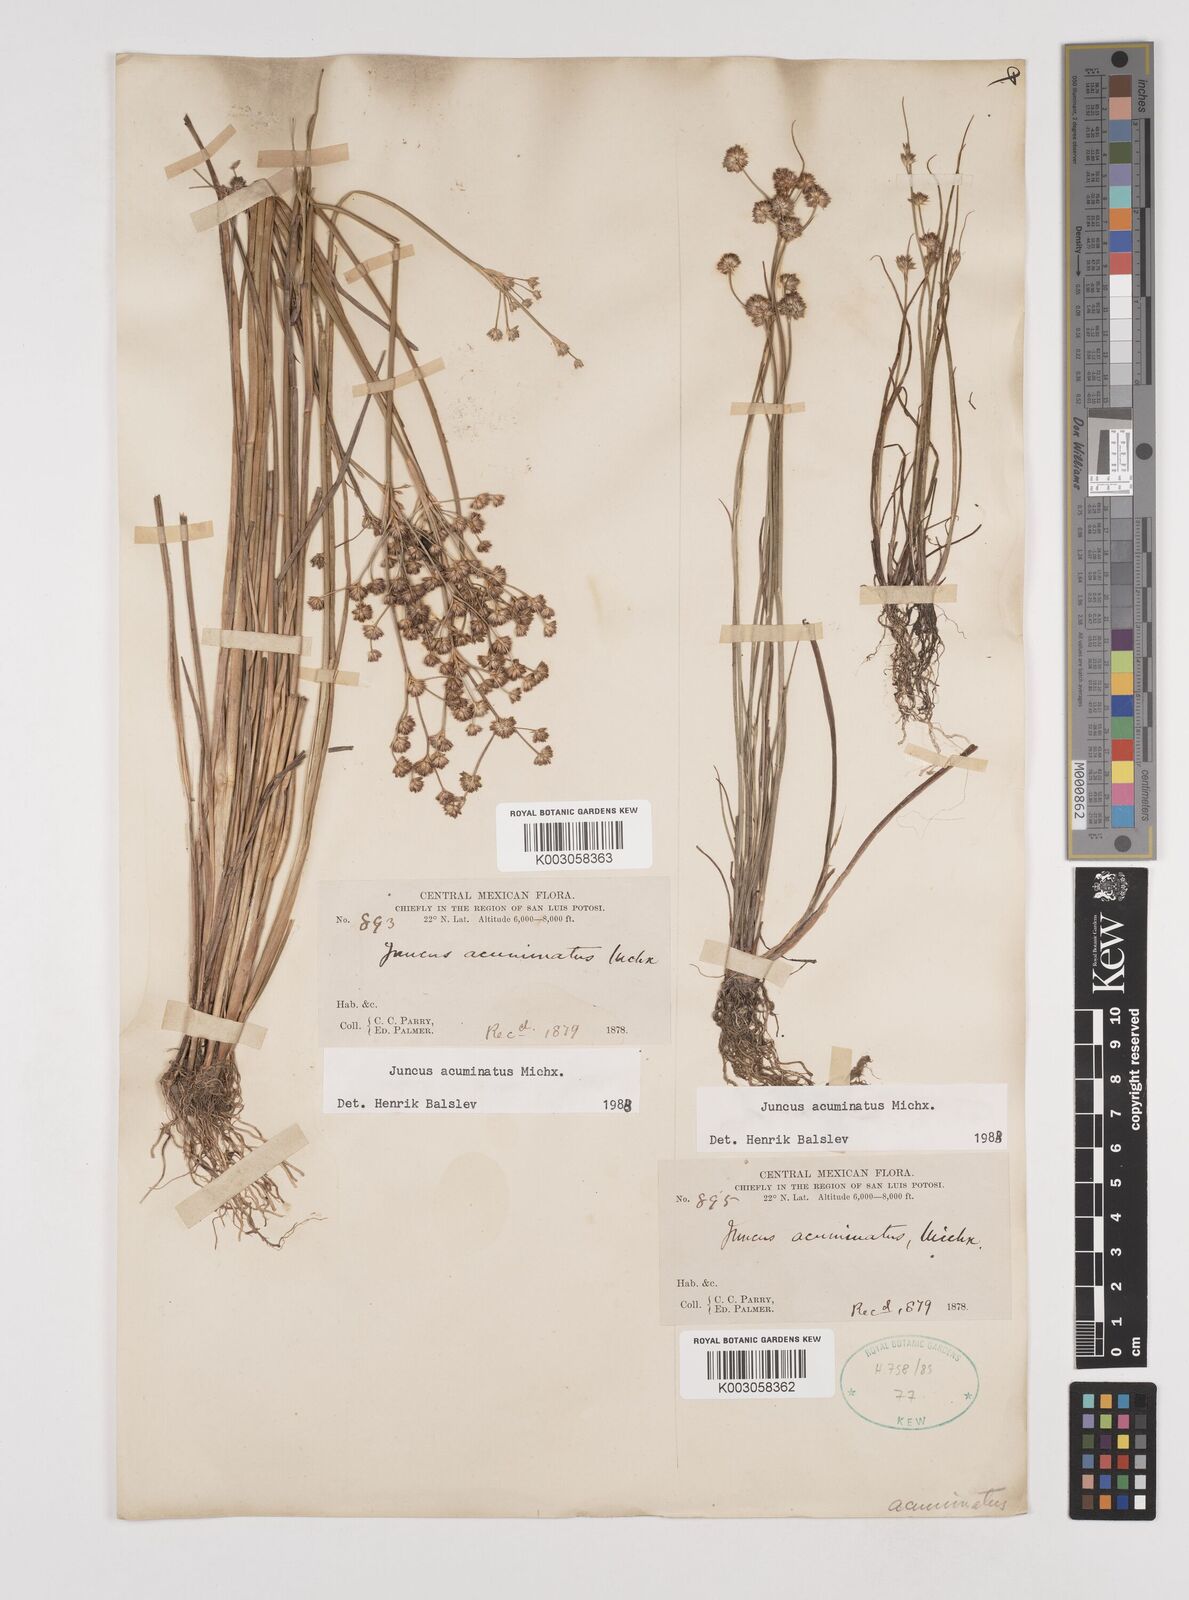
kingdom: Plantae
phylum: Tracheophyta
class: Liliopsida
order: Poales
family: Juncaceae
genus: Juncus
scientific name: Juncus acuminatus
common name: Knotty-leaved rush
